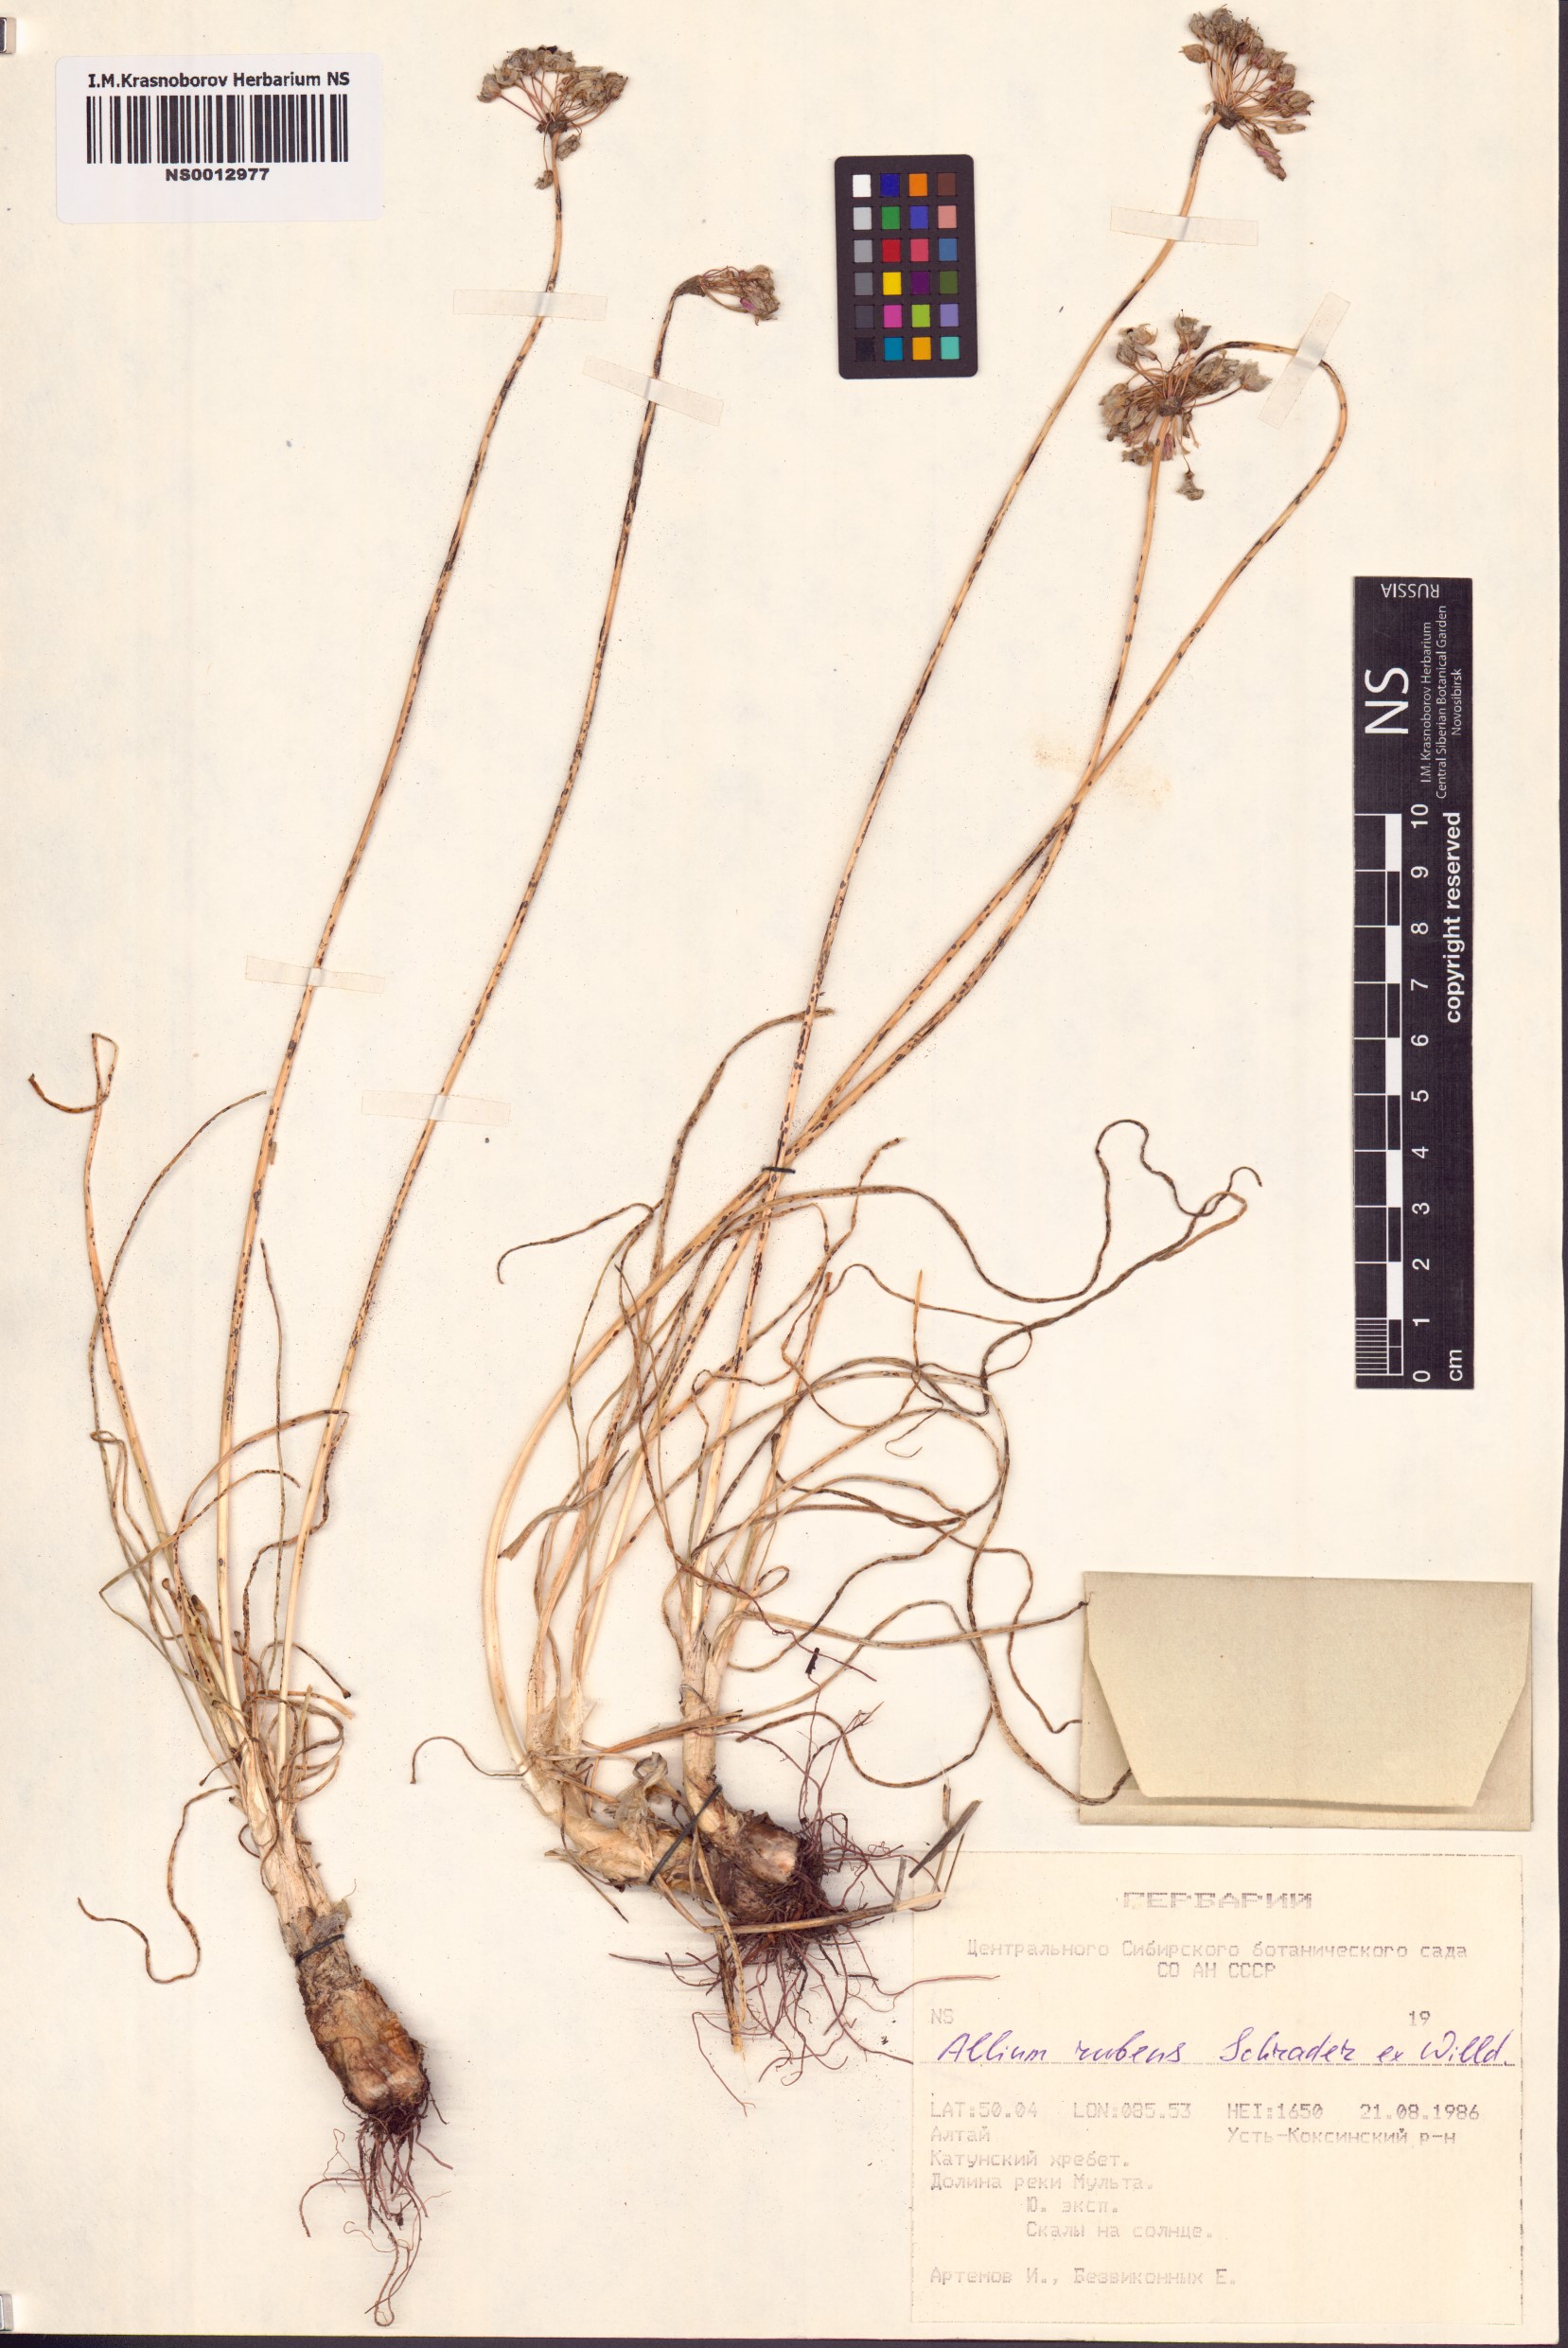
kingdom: Plantae
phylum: Tracheophyta
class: Liliopsida
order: Asparagales
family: Amaryllidaceae
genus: Allium
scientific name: Allium rubens
